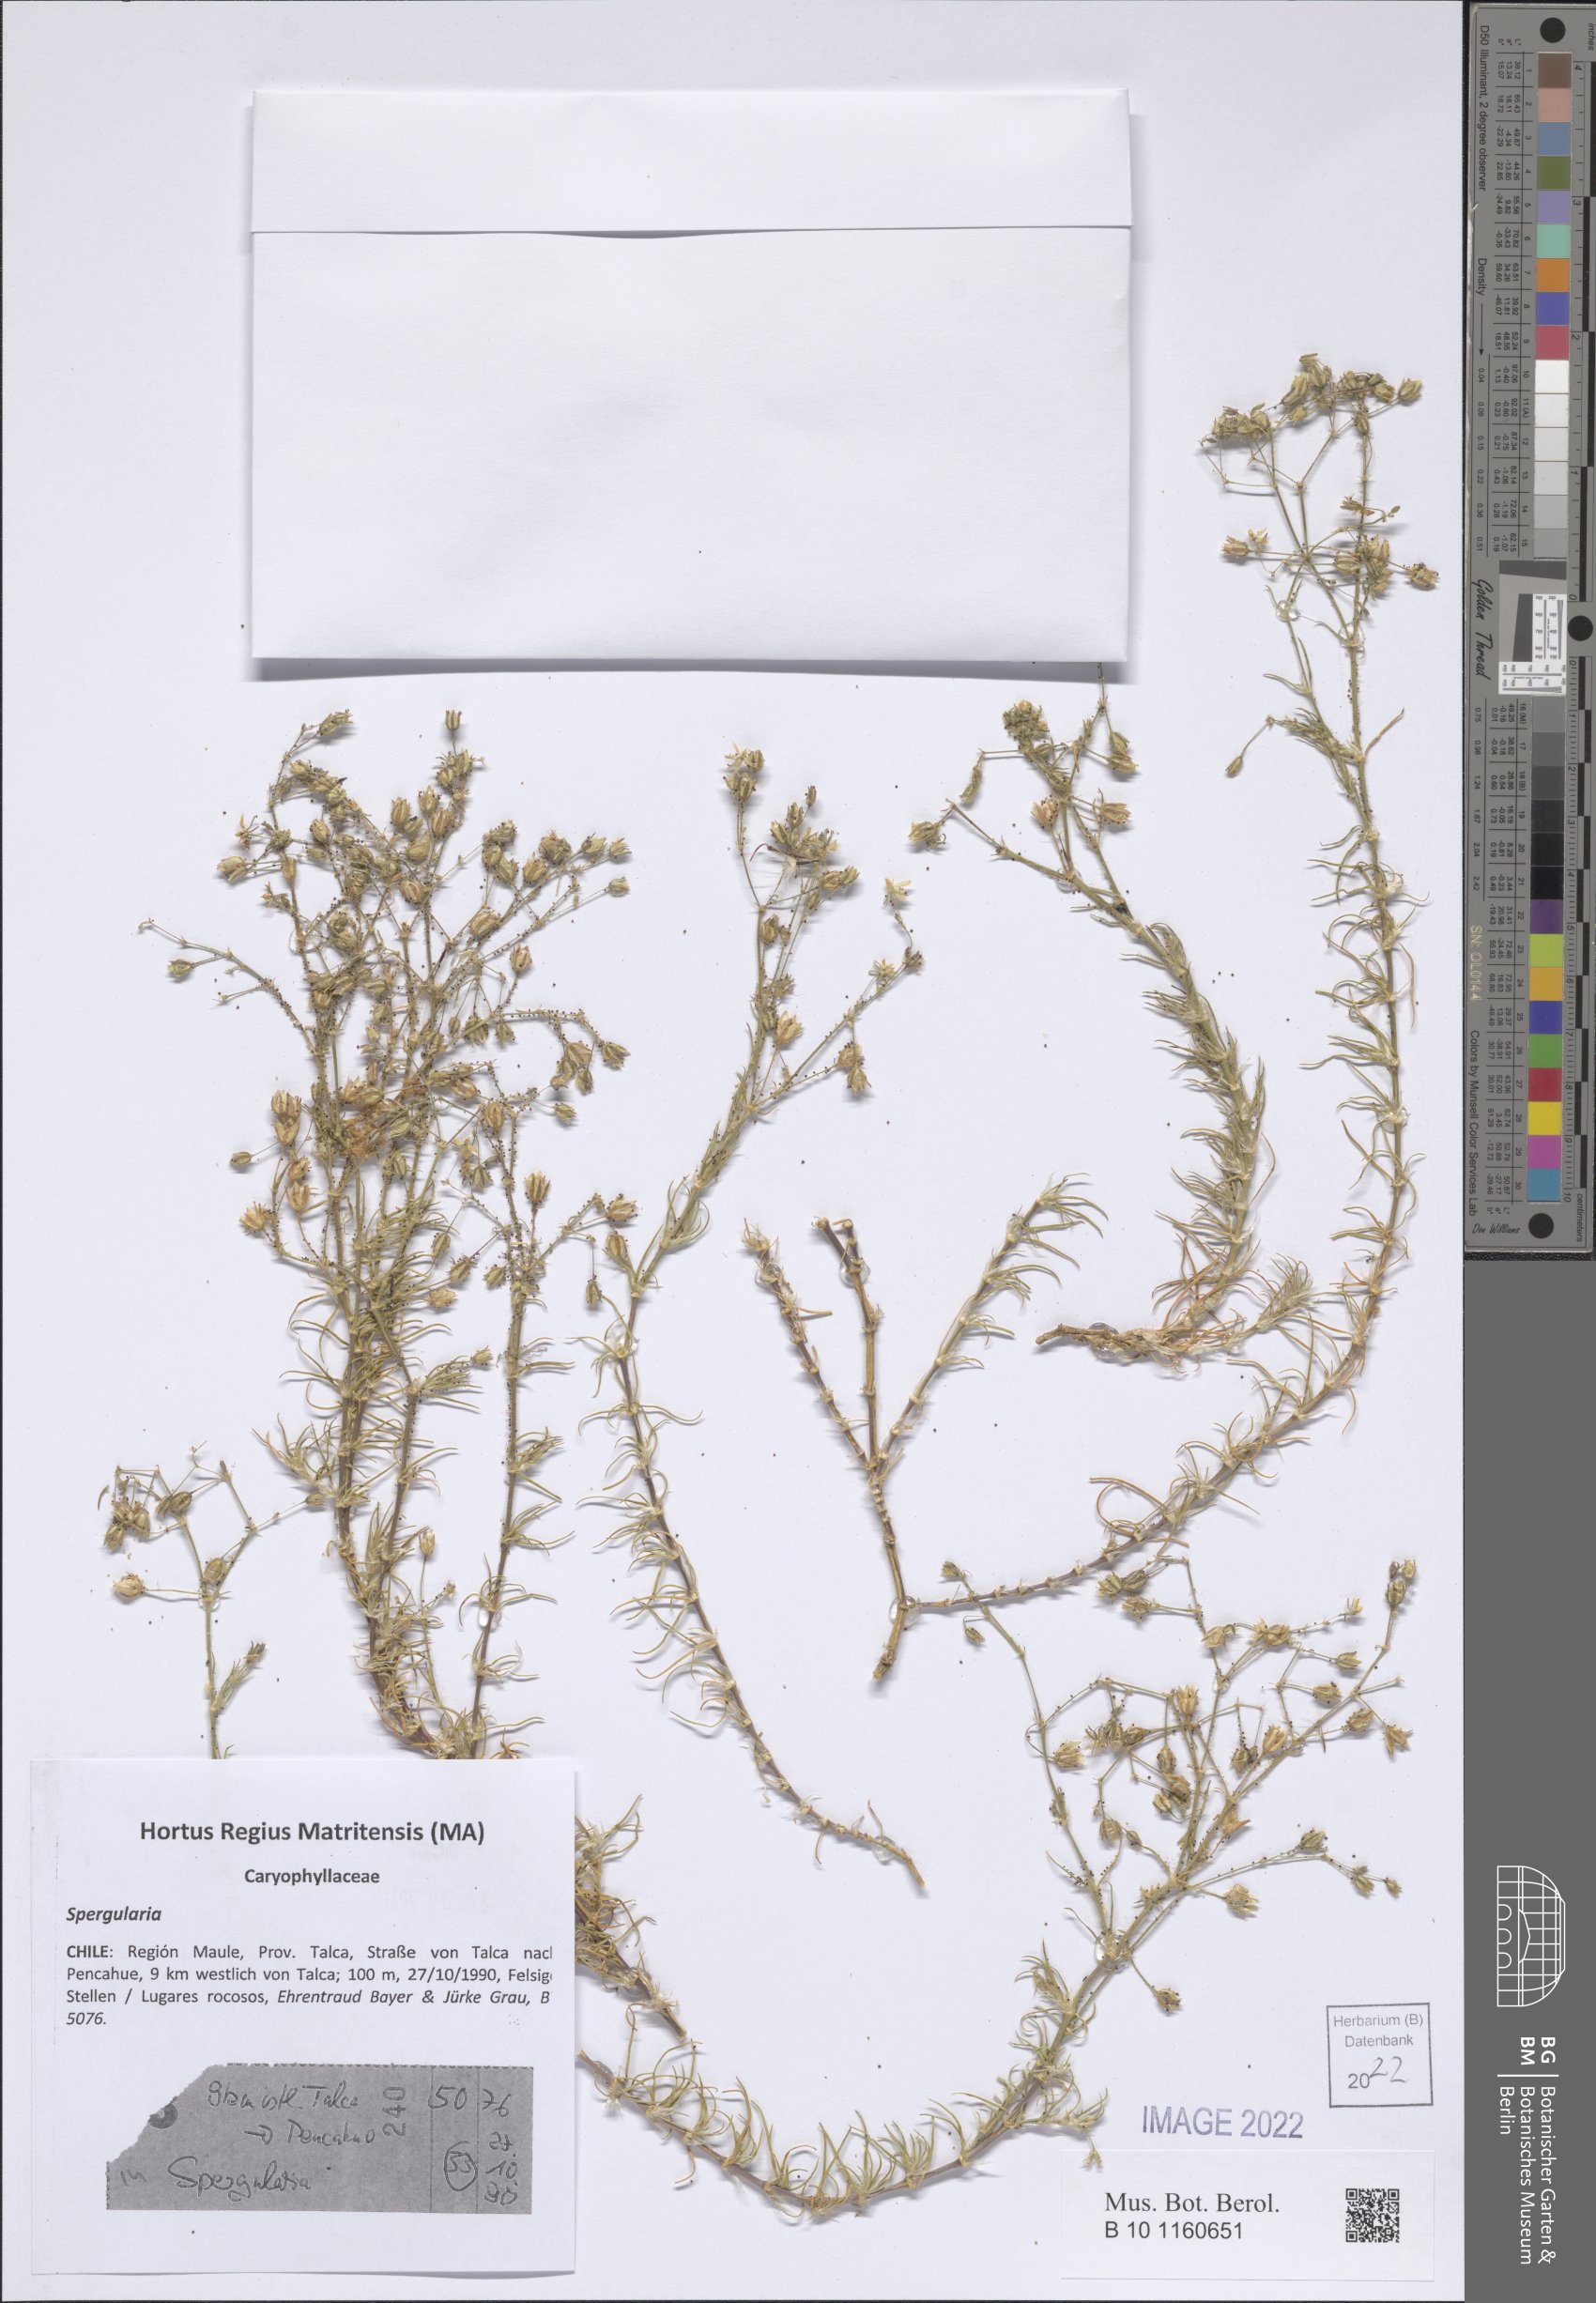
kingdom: Plantae
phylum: Tracheophyta
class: Magnoliopsida
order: Caryophyllales
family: Caryophyllaceae
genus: Spergularia
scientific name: Spergularia
